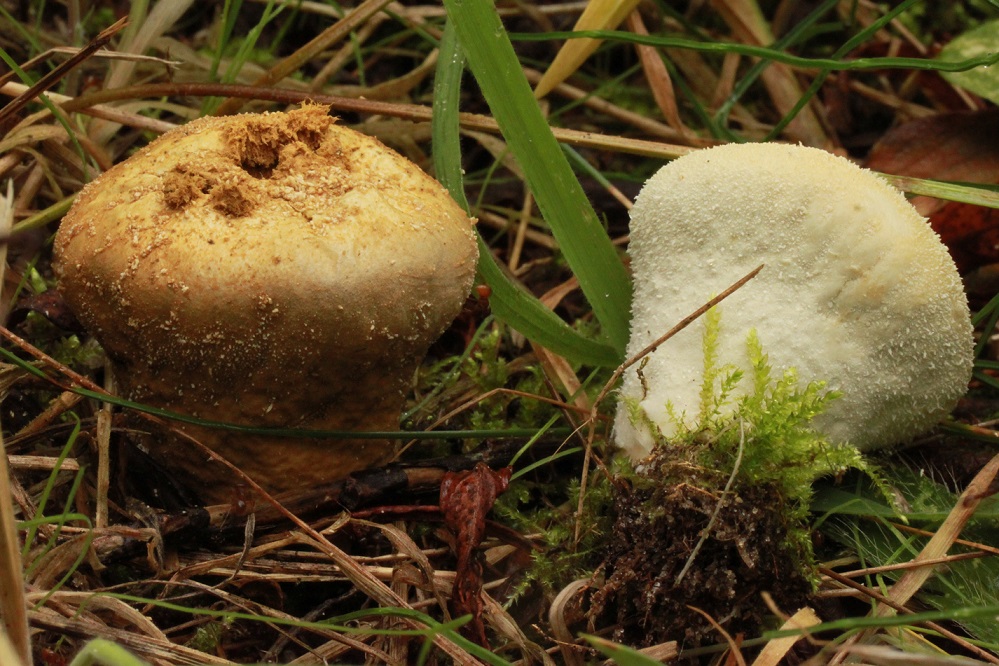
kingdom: Fungi
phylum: Basidiomycota
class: Agaricomycetes
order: Agaricales
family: Lycoperdaceae
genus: Lycoperdon
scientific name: Lycoperdon pratense
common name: flad støvbold
